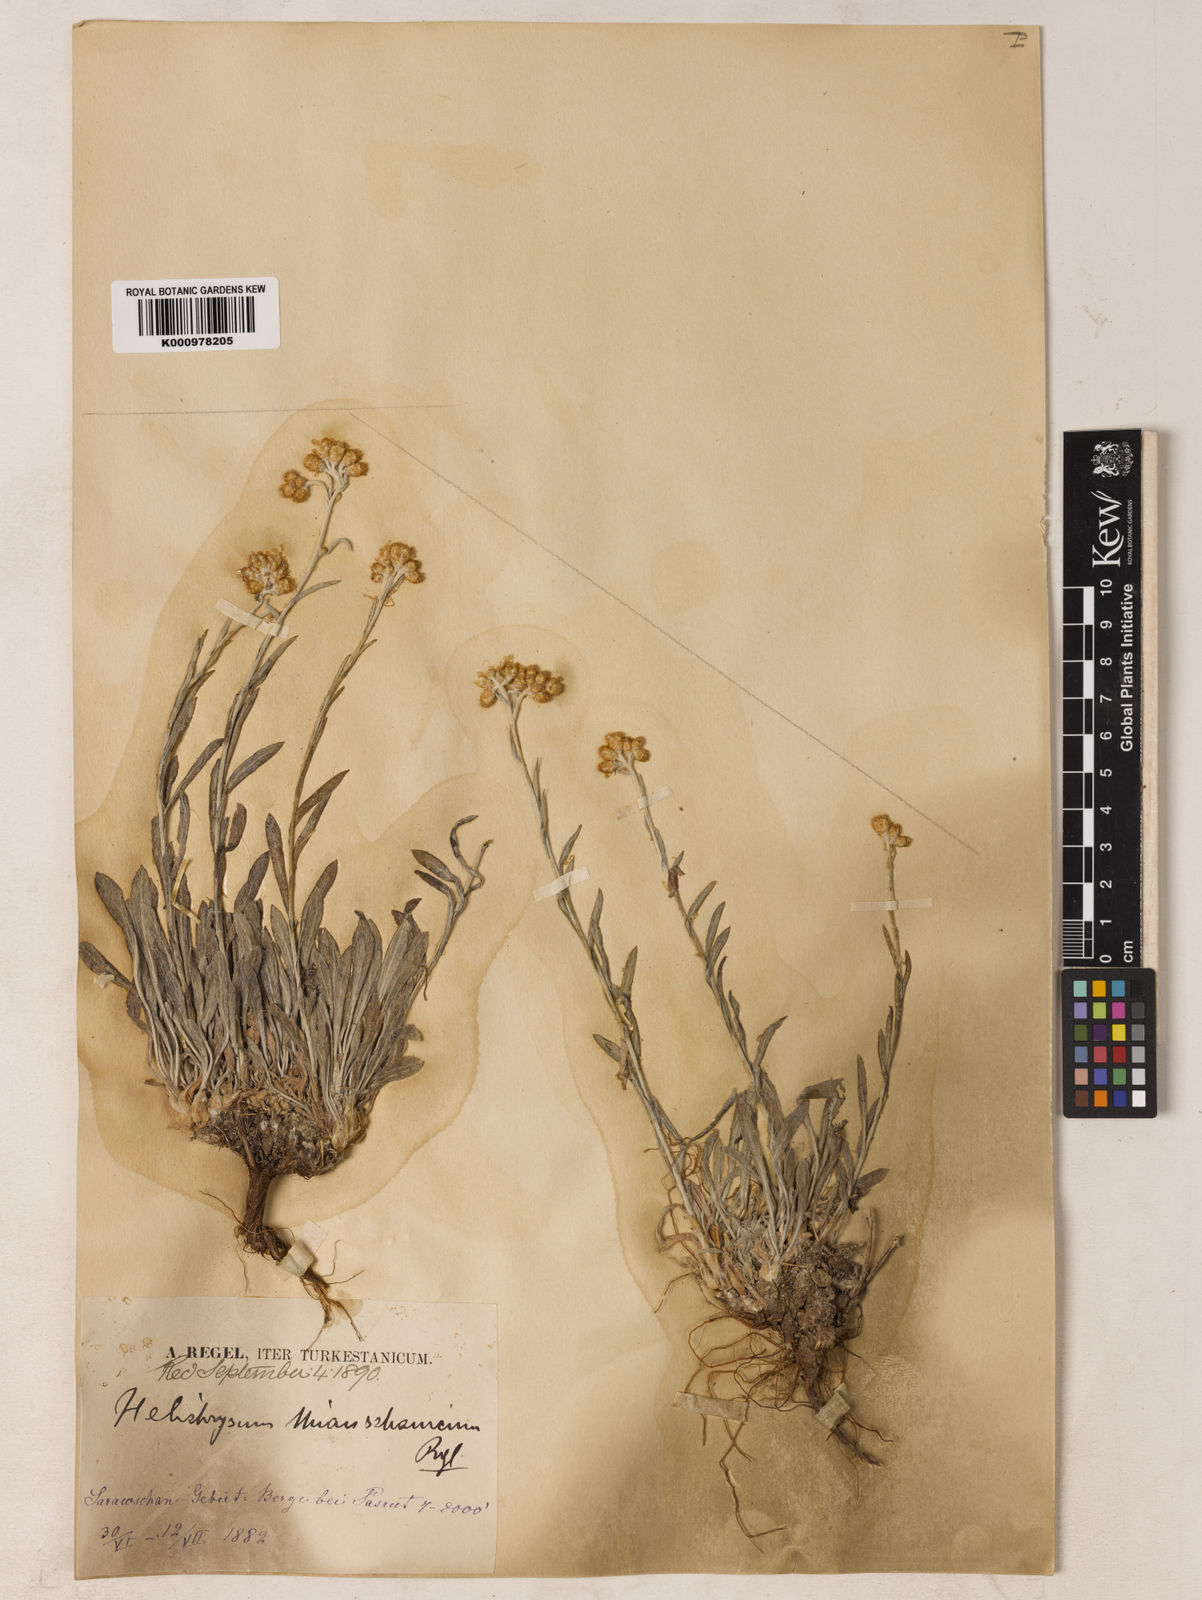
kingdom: Plantae
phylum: Tracheophyta
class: Magnoliopsida
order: Asterales
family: Asteraceae
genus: Helichrysum
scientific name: Helichrysum thianschanicum
